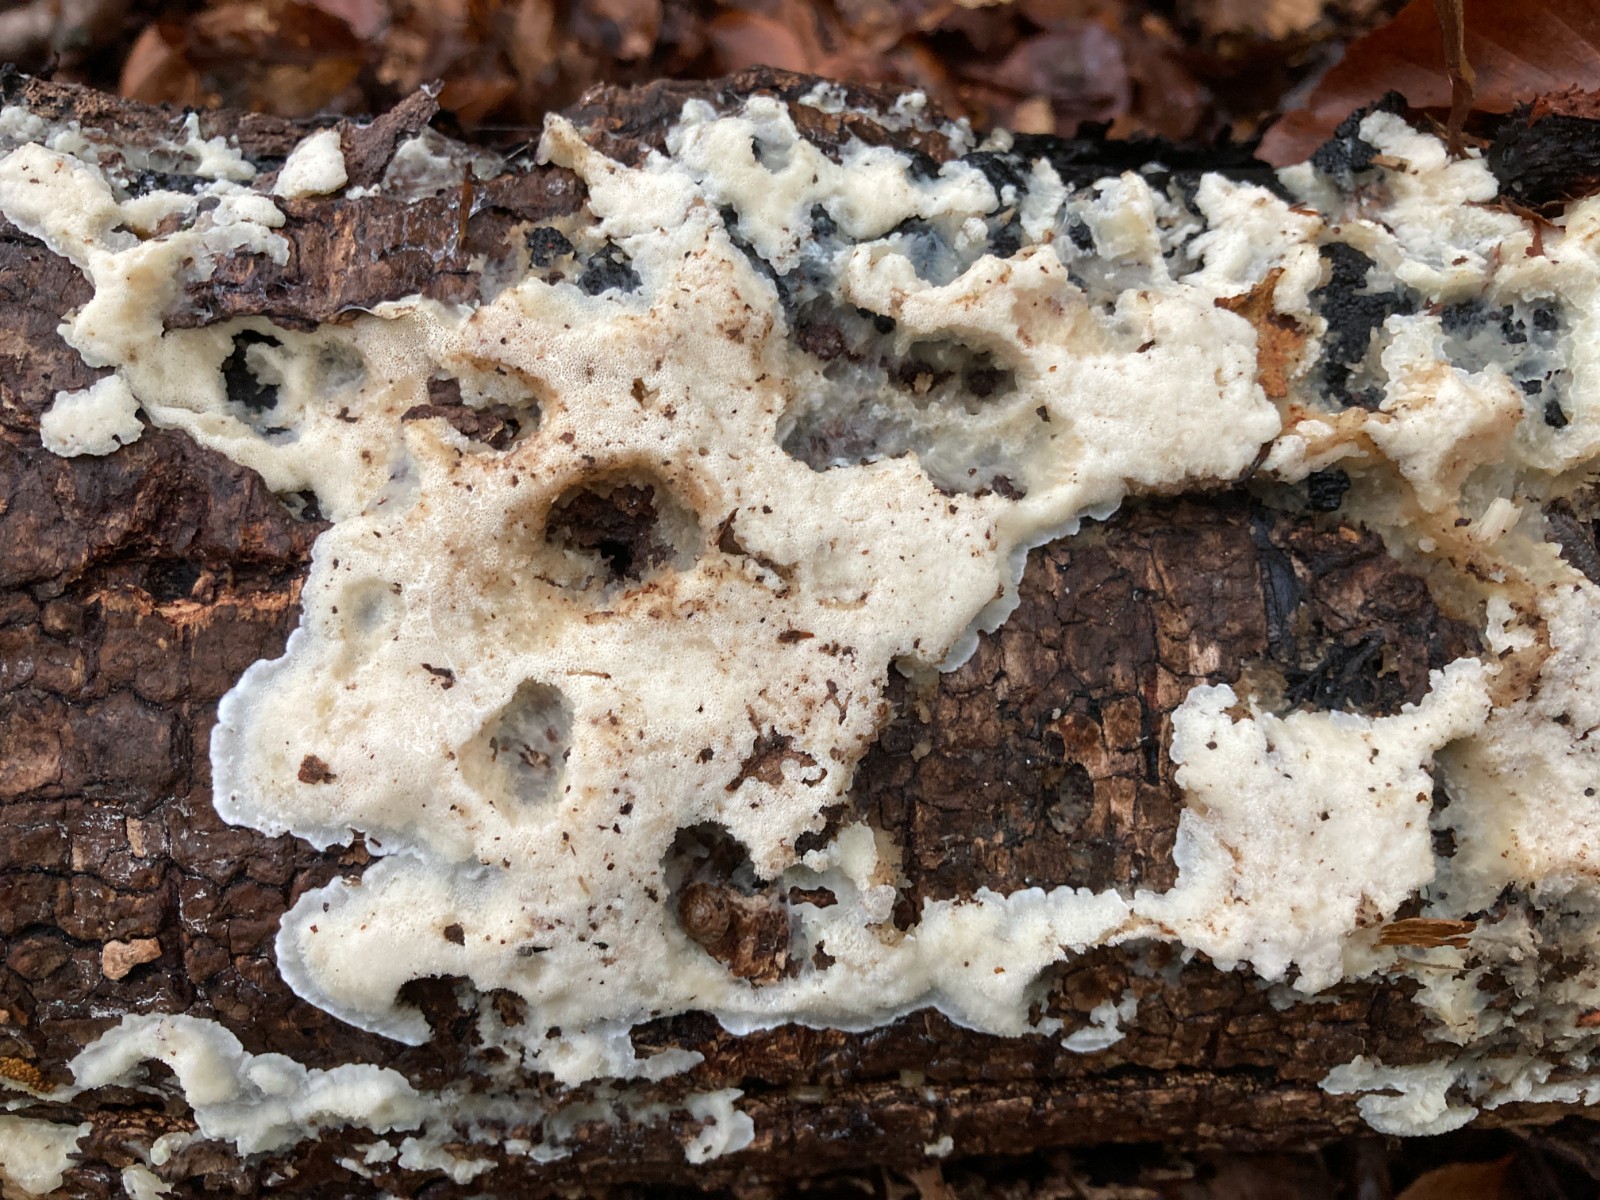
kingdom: Fungi
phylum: Basidiomycota
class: Agaricomycetes
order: Polyporales
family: Meruliaceae
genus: Physisporinus
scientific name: Physisporinus vitreus
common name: mastesvamp
